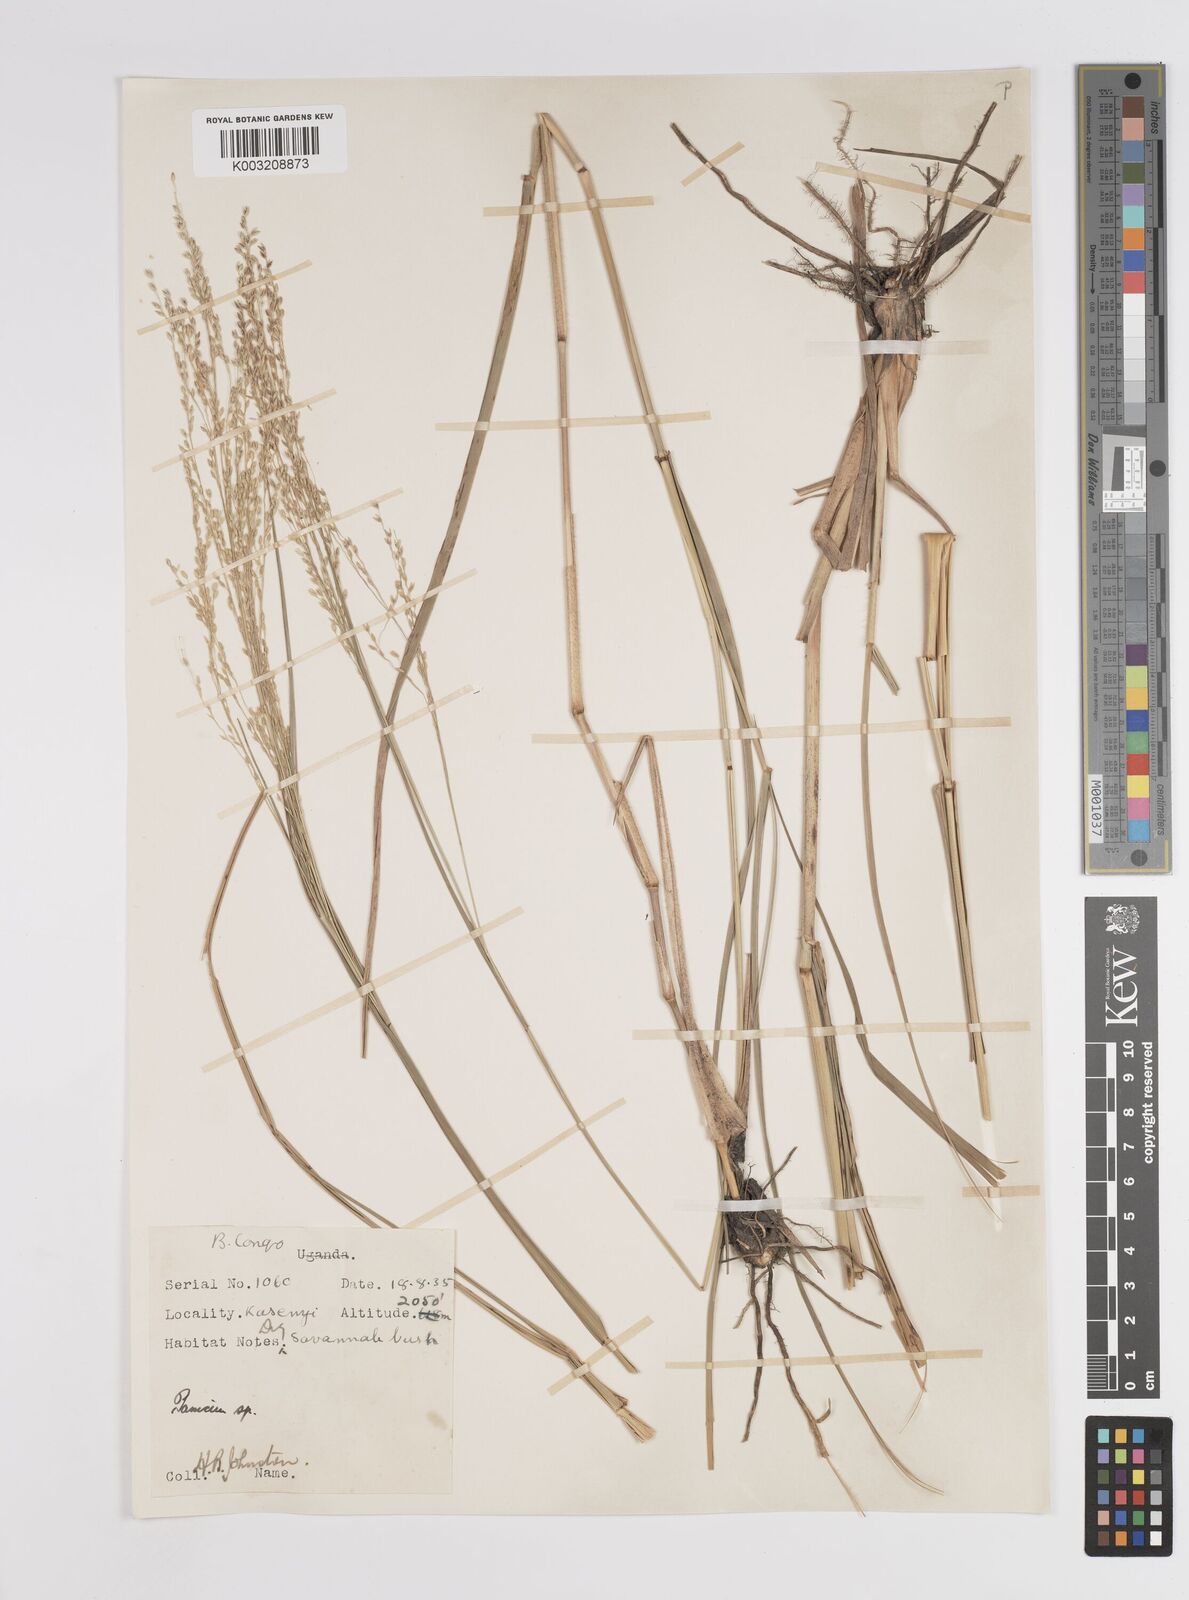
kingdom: Plantae
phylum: Tracheophyta
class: Liliopsida
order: Poales
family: Poaceae
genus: Panicum
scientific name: Panicum merkeri
